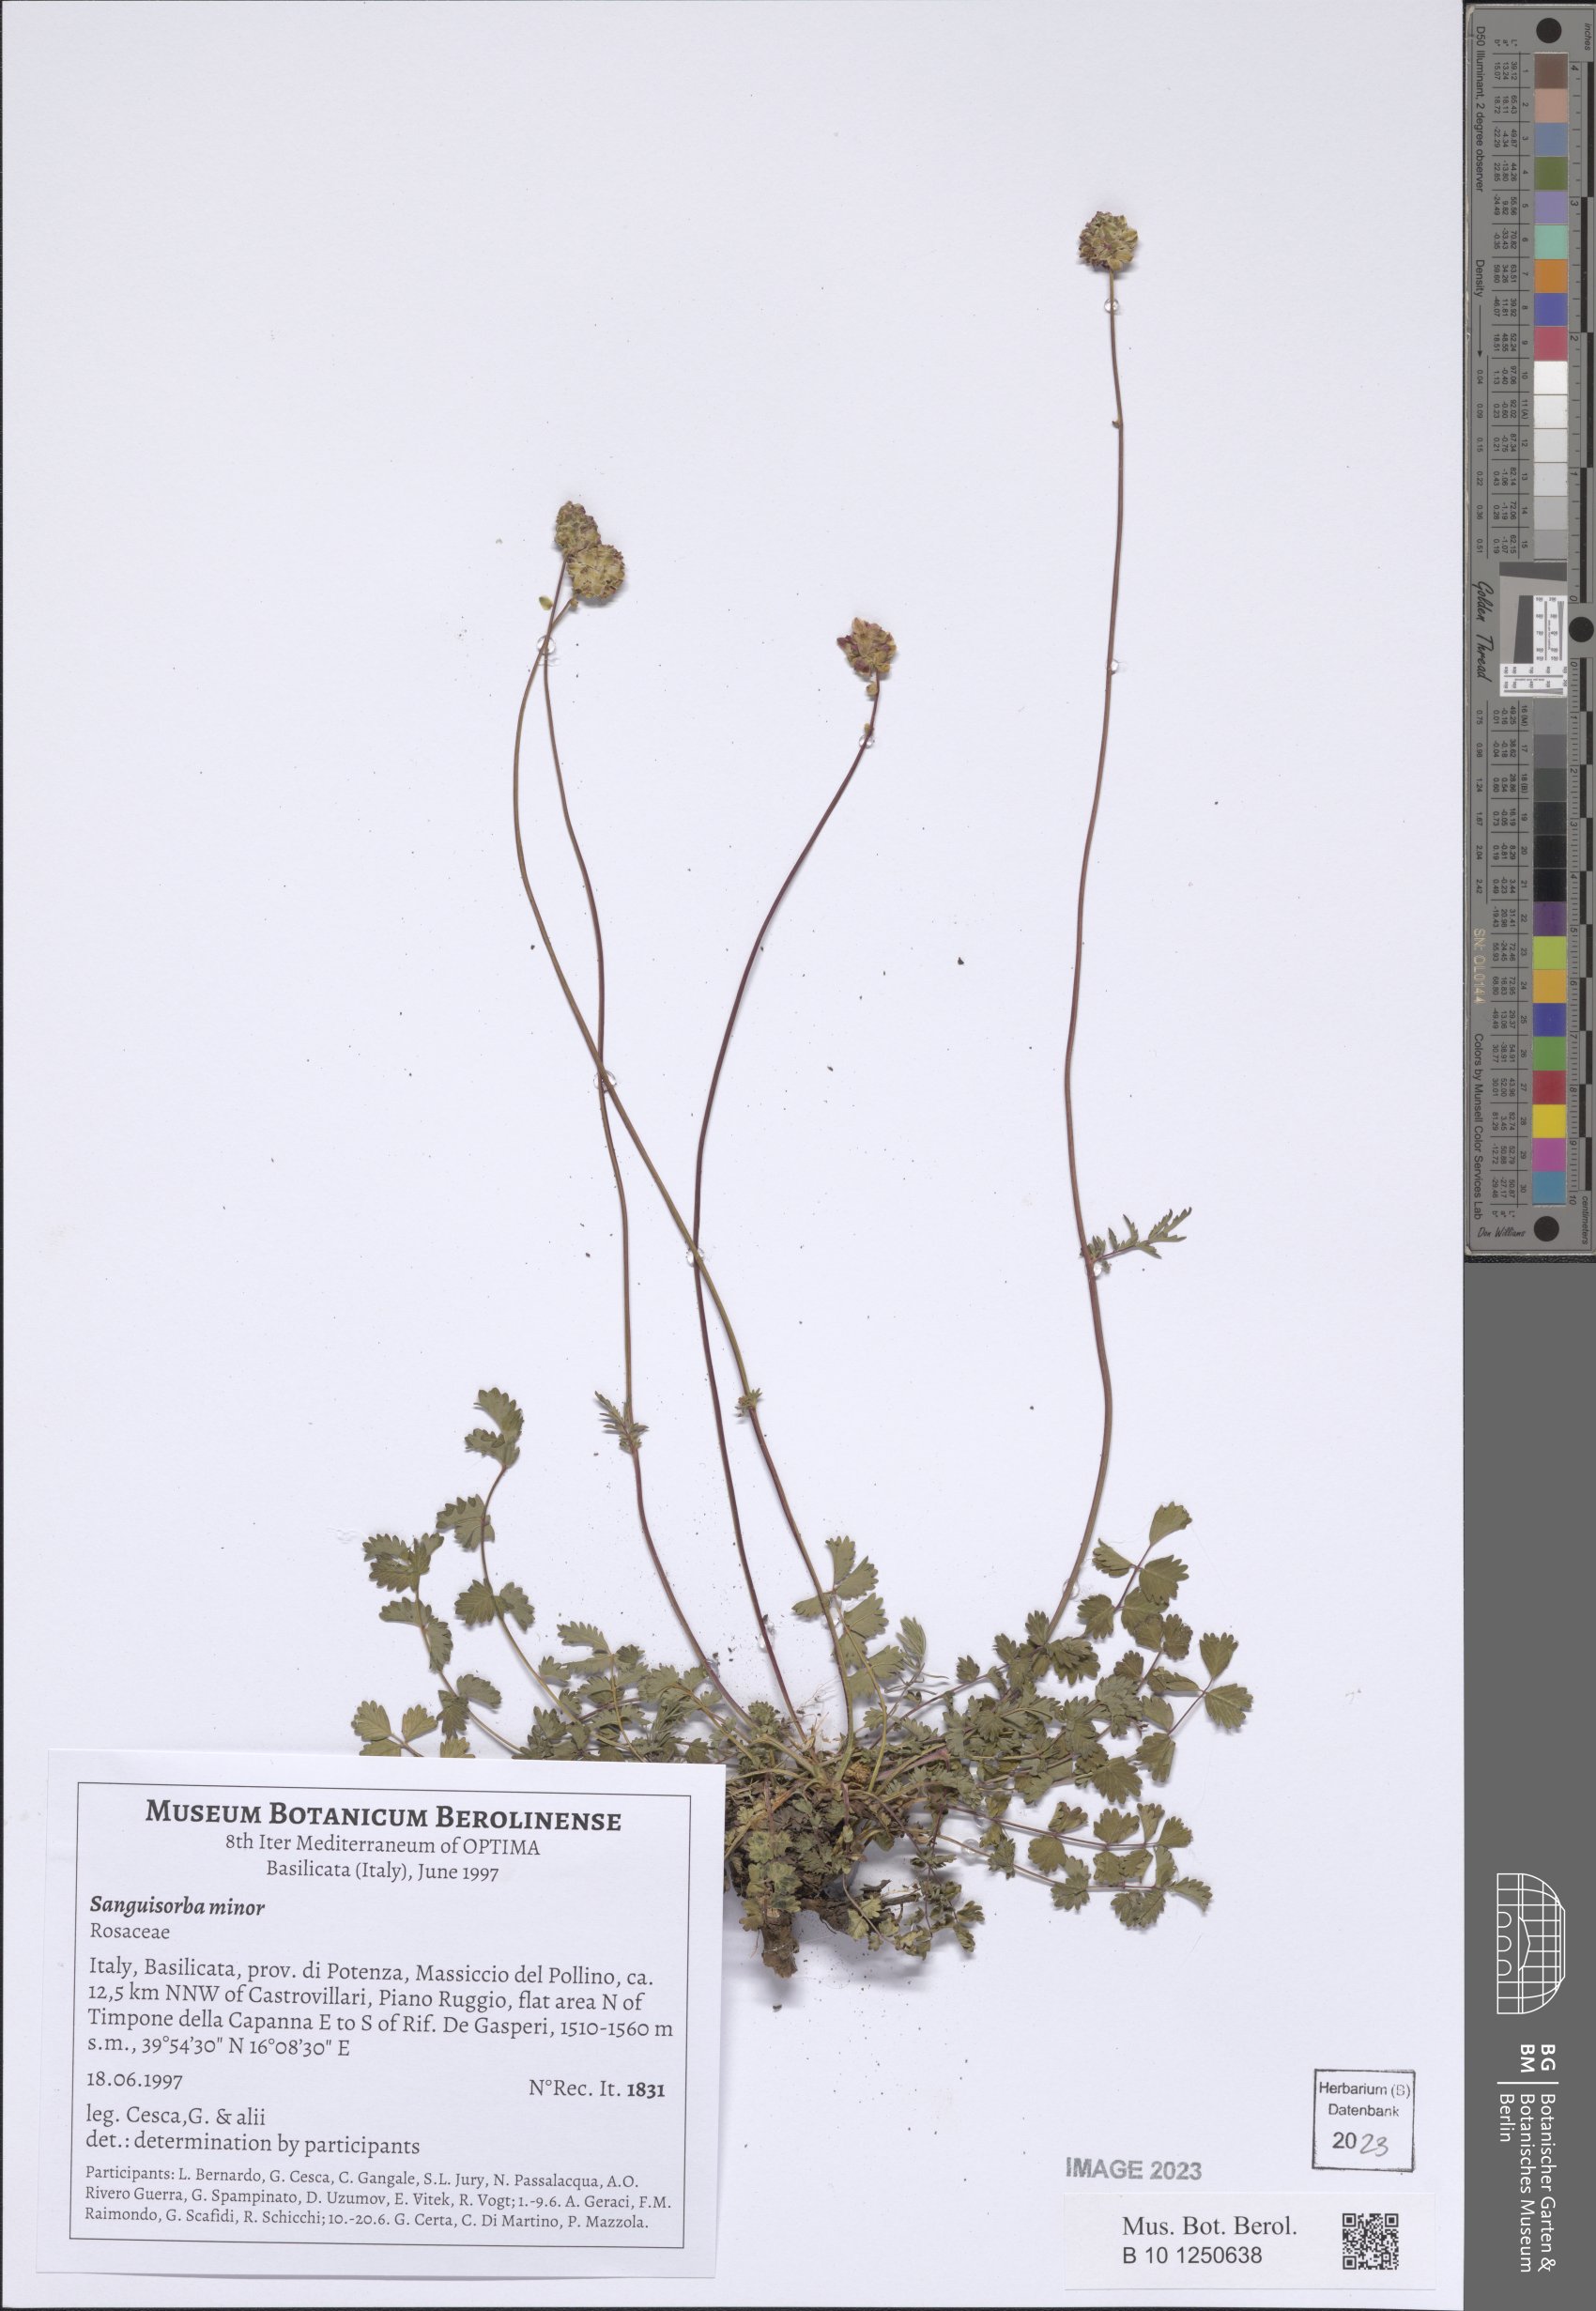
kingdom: Plantae
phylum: Tracheophyta
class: Magnoliopsida
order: Rosales
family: Rosaceae
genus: Poterium
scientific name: Poterium sanguisorba
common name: Salad burnet
